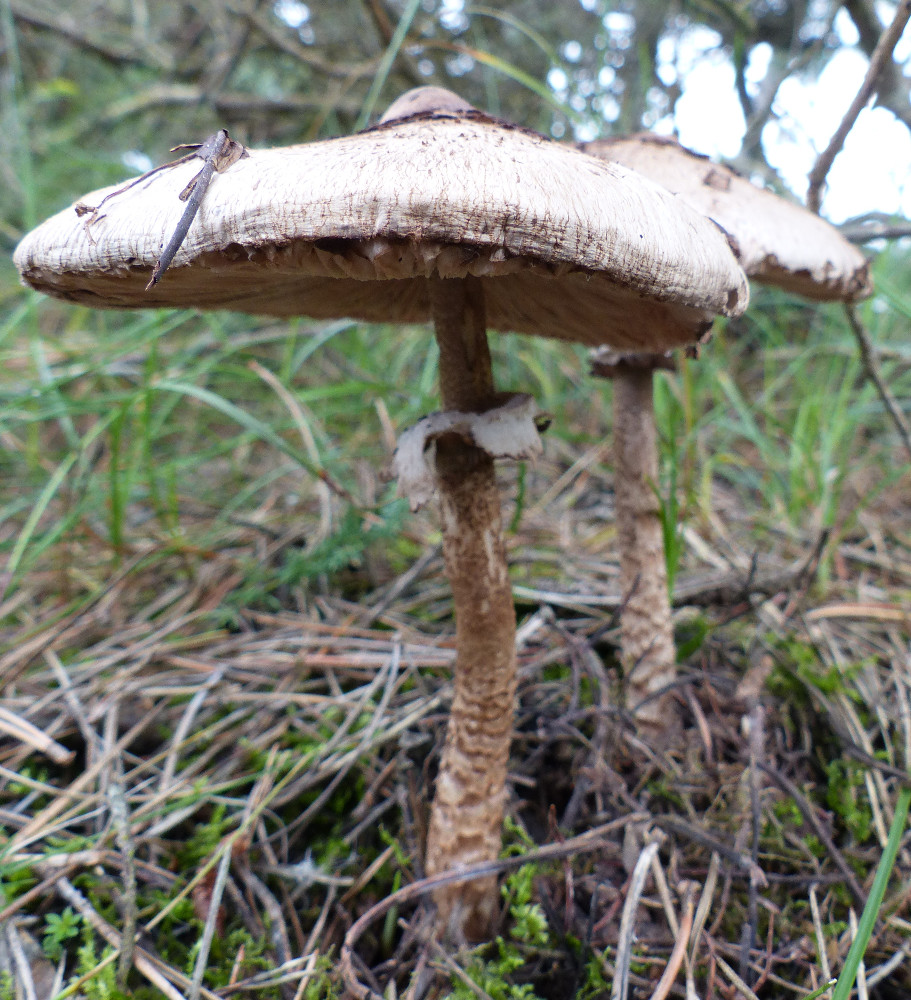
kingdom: Fungi
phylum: Basidiomycota
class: Agaricomycetes
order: Agaricales
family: Agaricaceae
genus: Macrolepiota
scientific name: Macrolepiota fuliginosa
